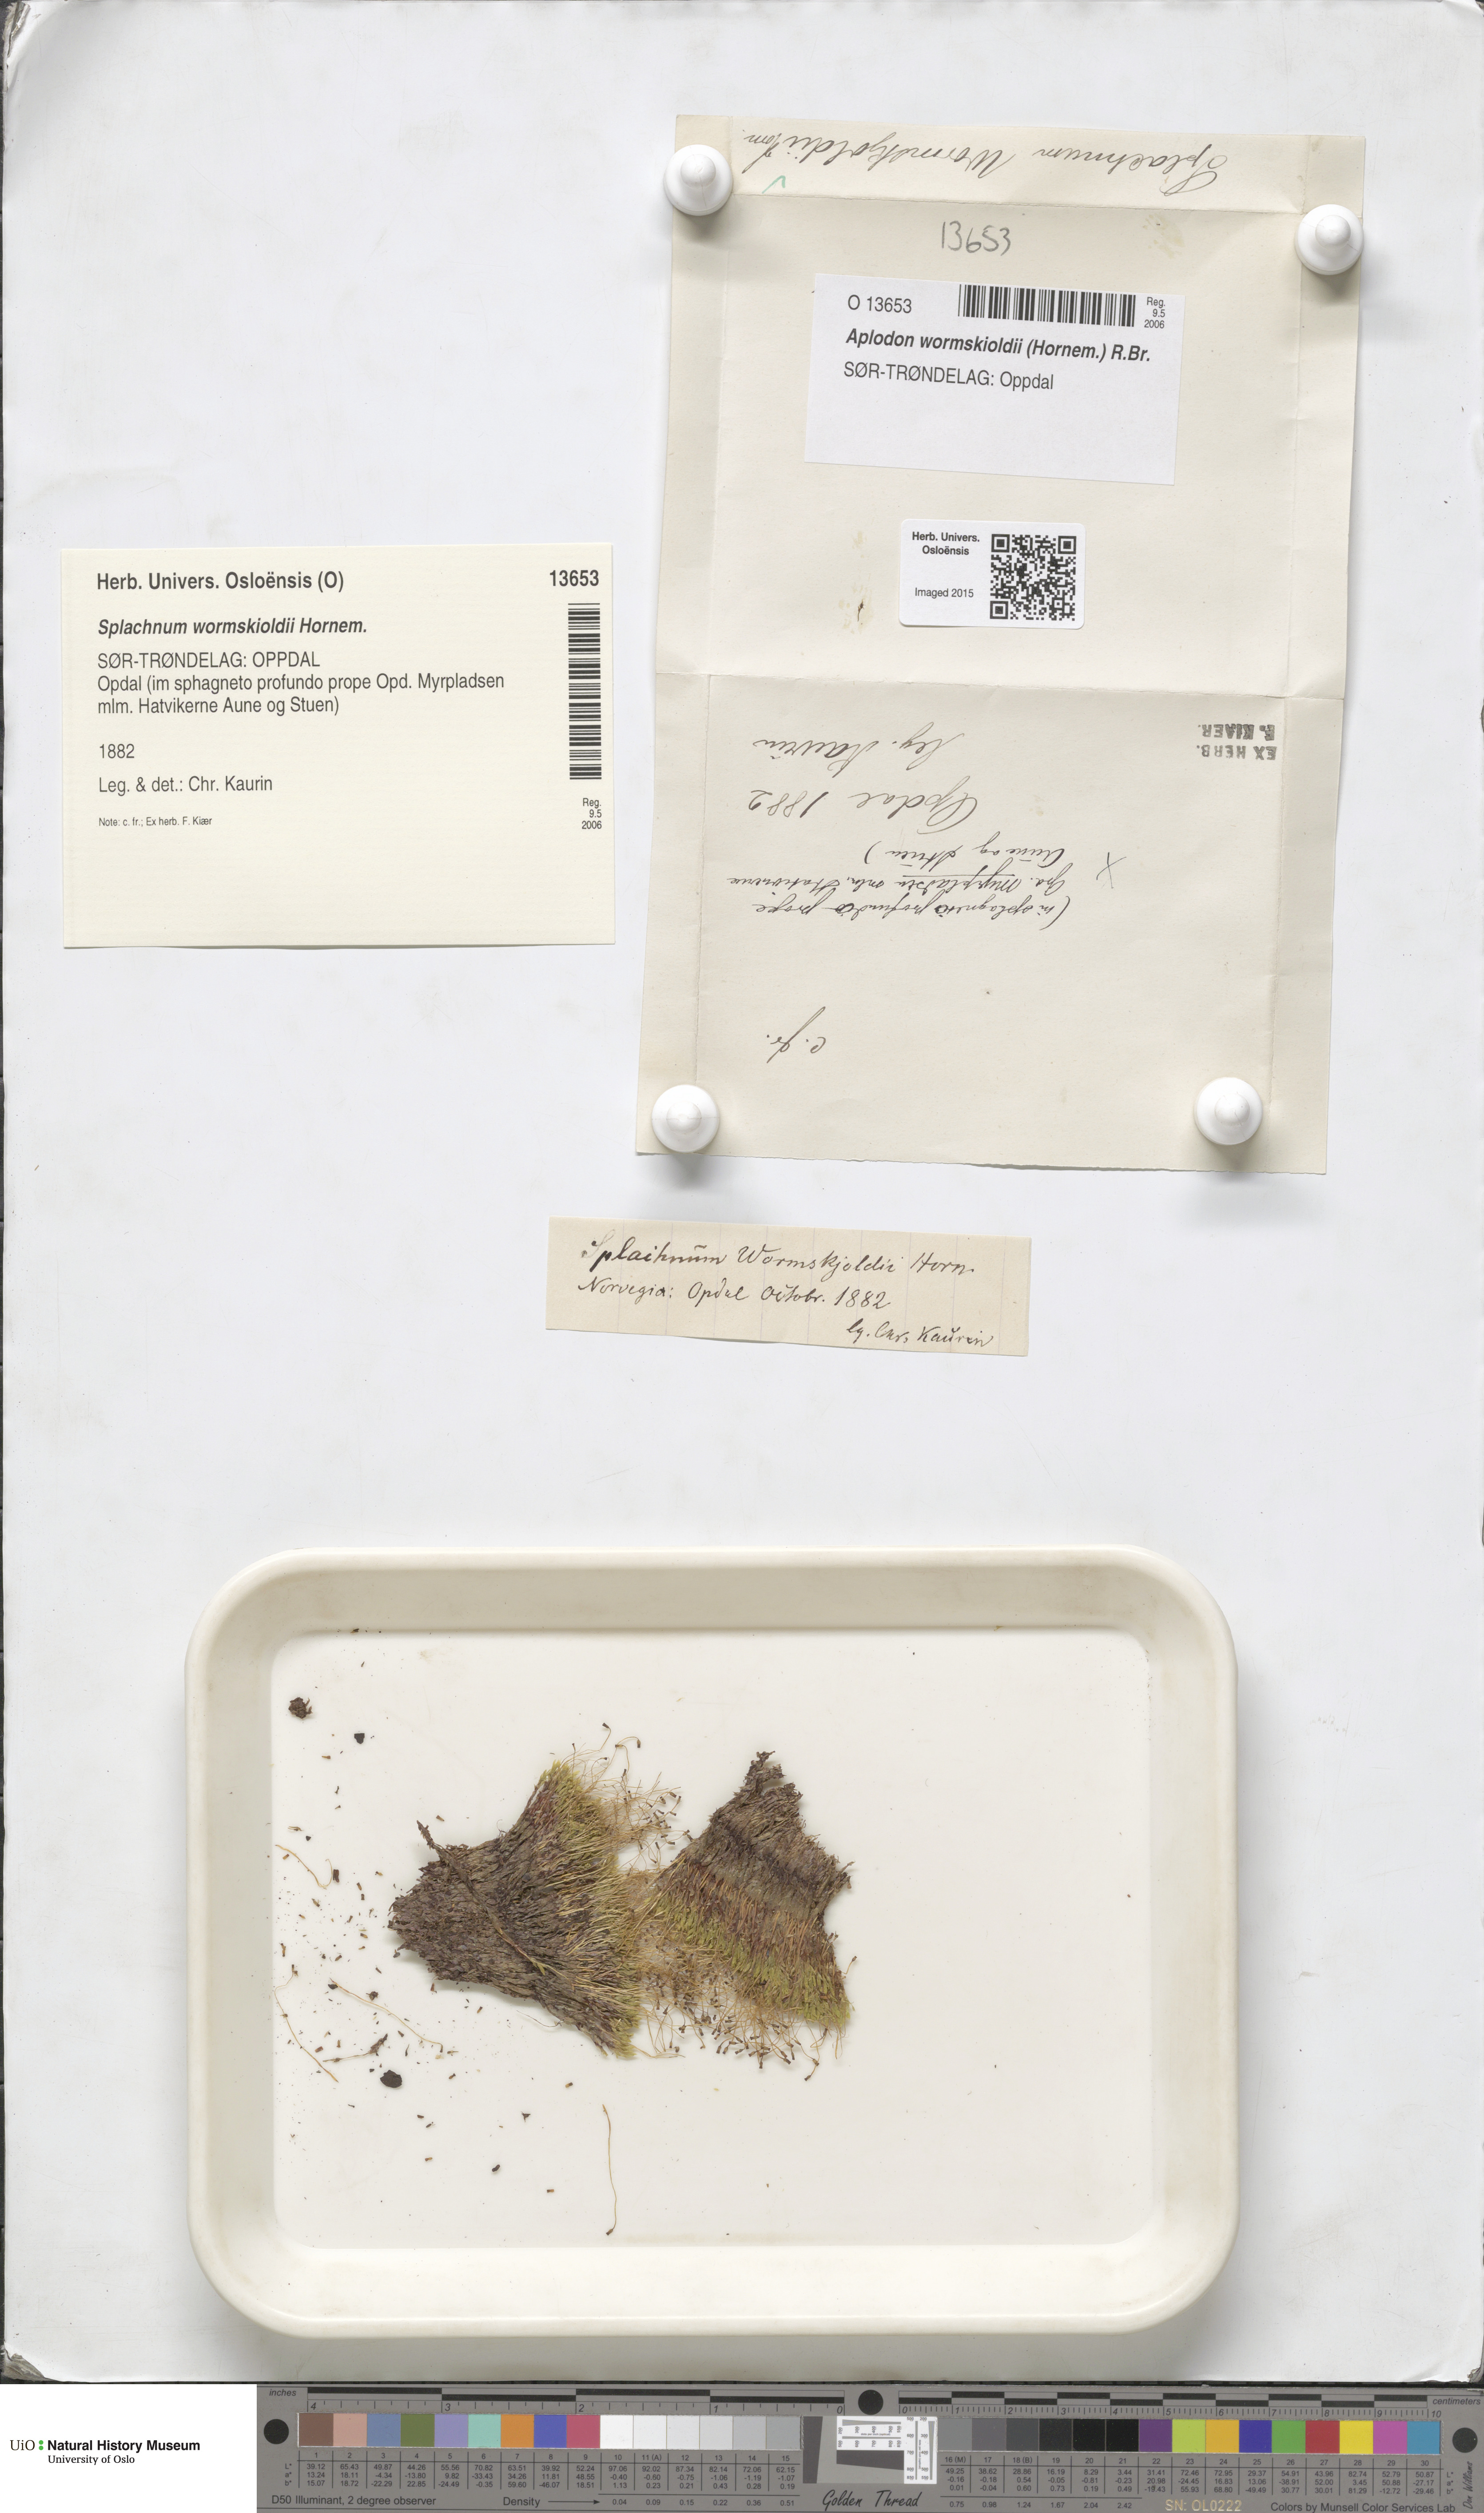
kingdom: Plantae
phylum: Bryophyta
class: Bryopsida
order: Splachnales
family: Splachnaceae
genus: Aplodon
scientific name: Aplodon wormskioldii
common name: Carrion moss
